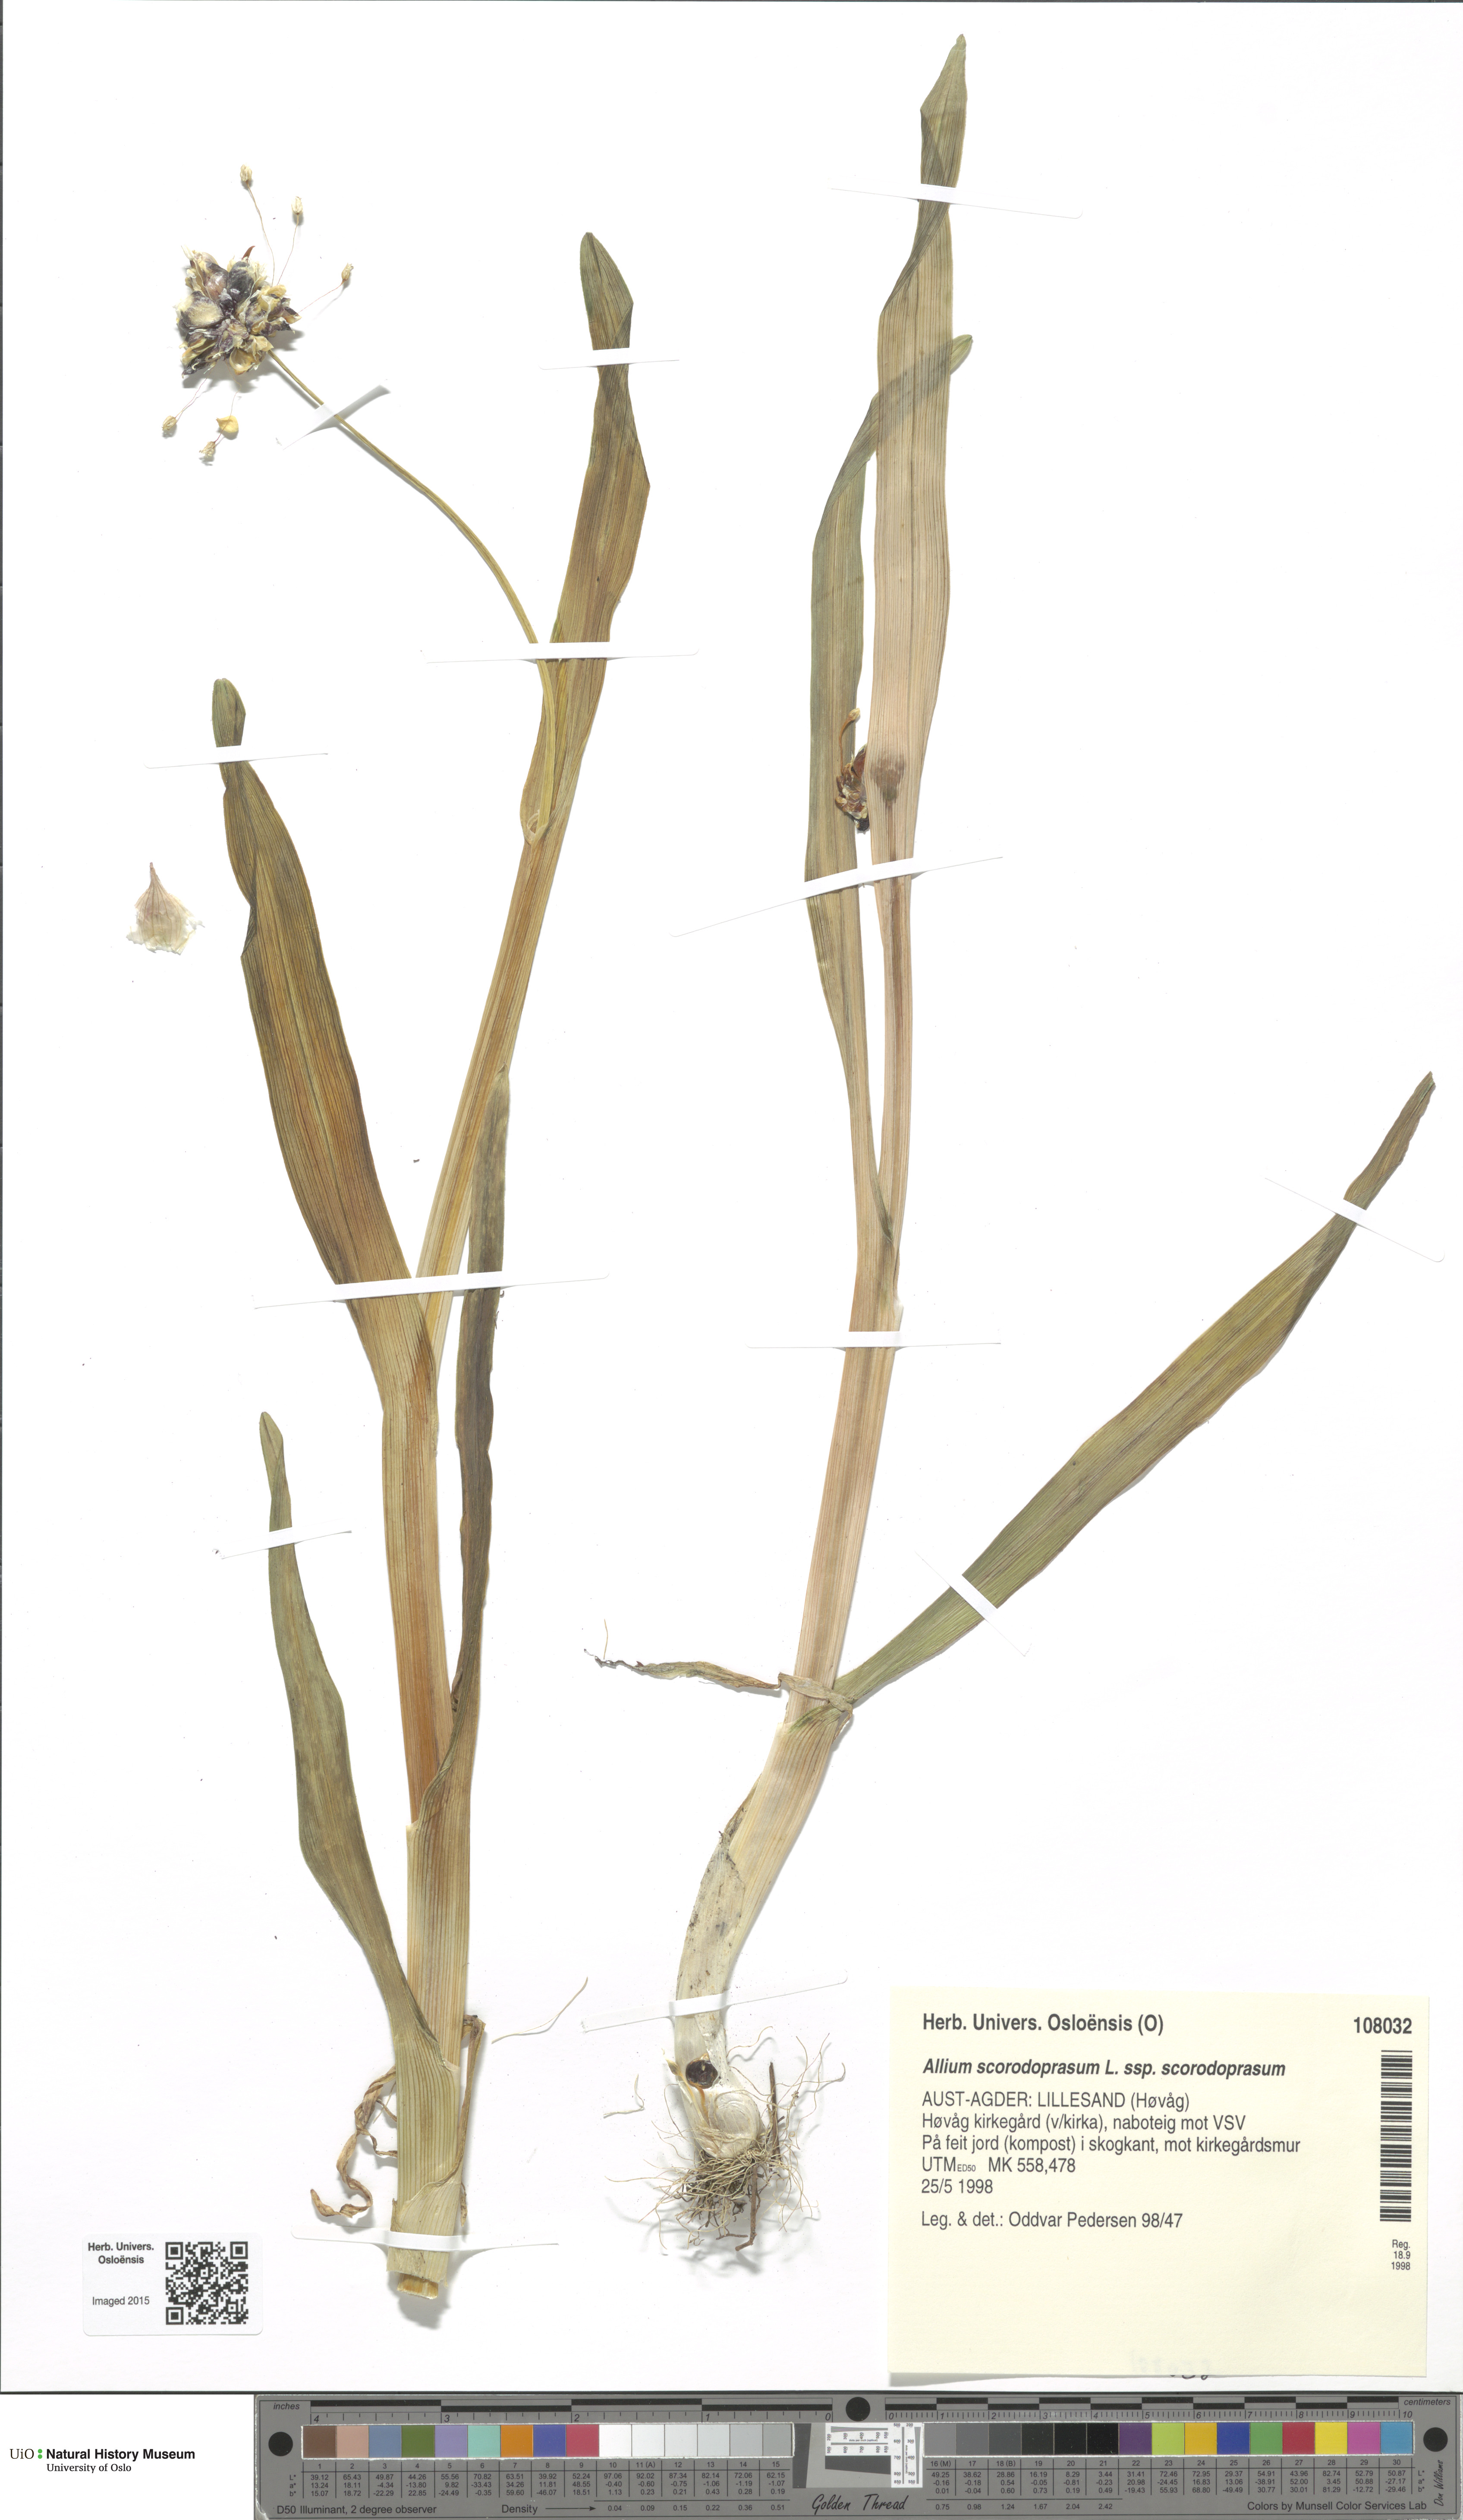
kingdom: Plantae
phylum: Tracheophyta
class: Liliopsida
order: Asparagales
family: Amaryllidaceae
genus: Allium
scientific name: Allium scorodoprasum
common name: Sand leek
